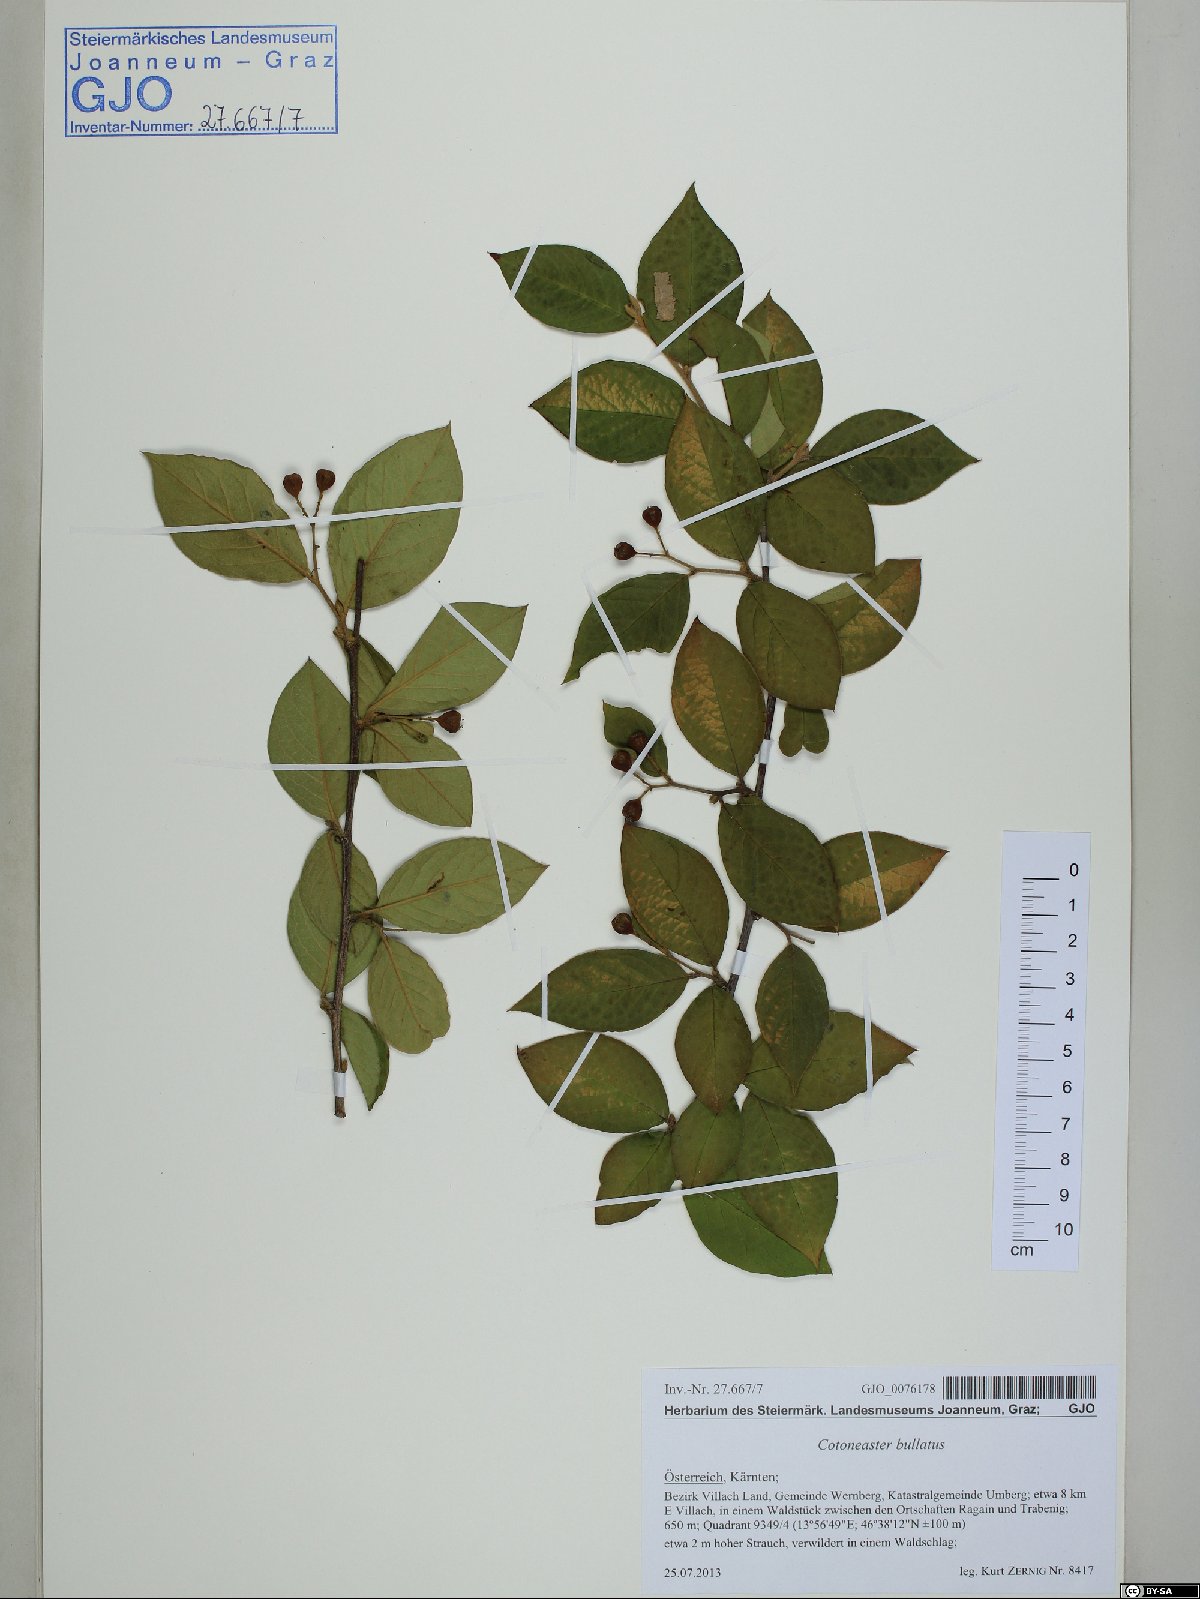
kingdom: Plantae
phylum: Tracheophyta
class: Magnoliopsida
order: Rosales
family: Rosaceae
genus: Cotoneaster
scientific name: Cotoneaster bullatus
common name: Hollyberry cotoneaster
